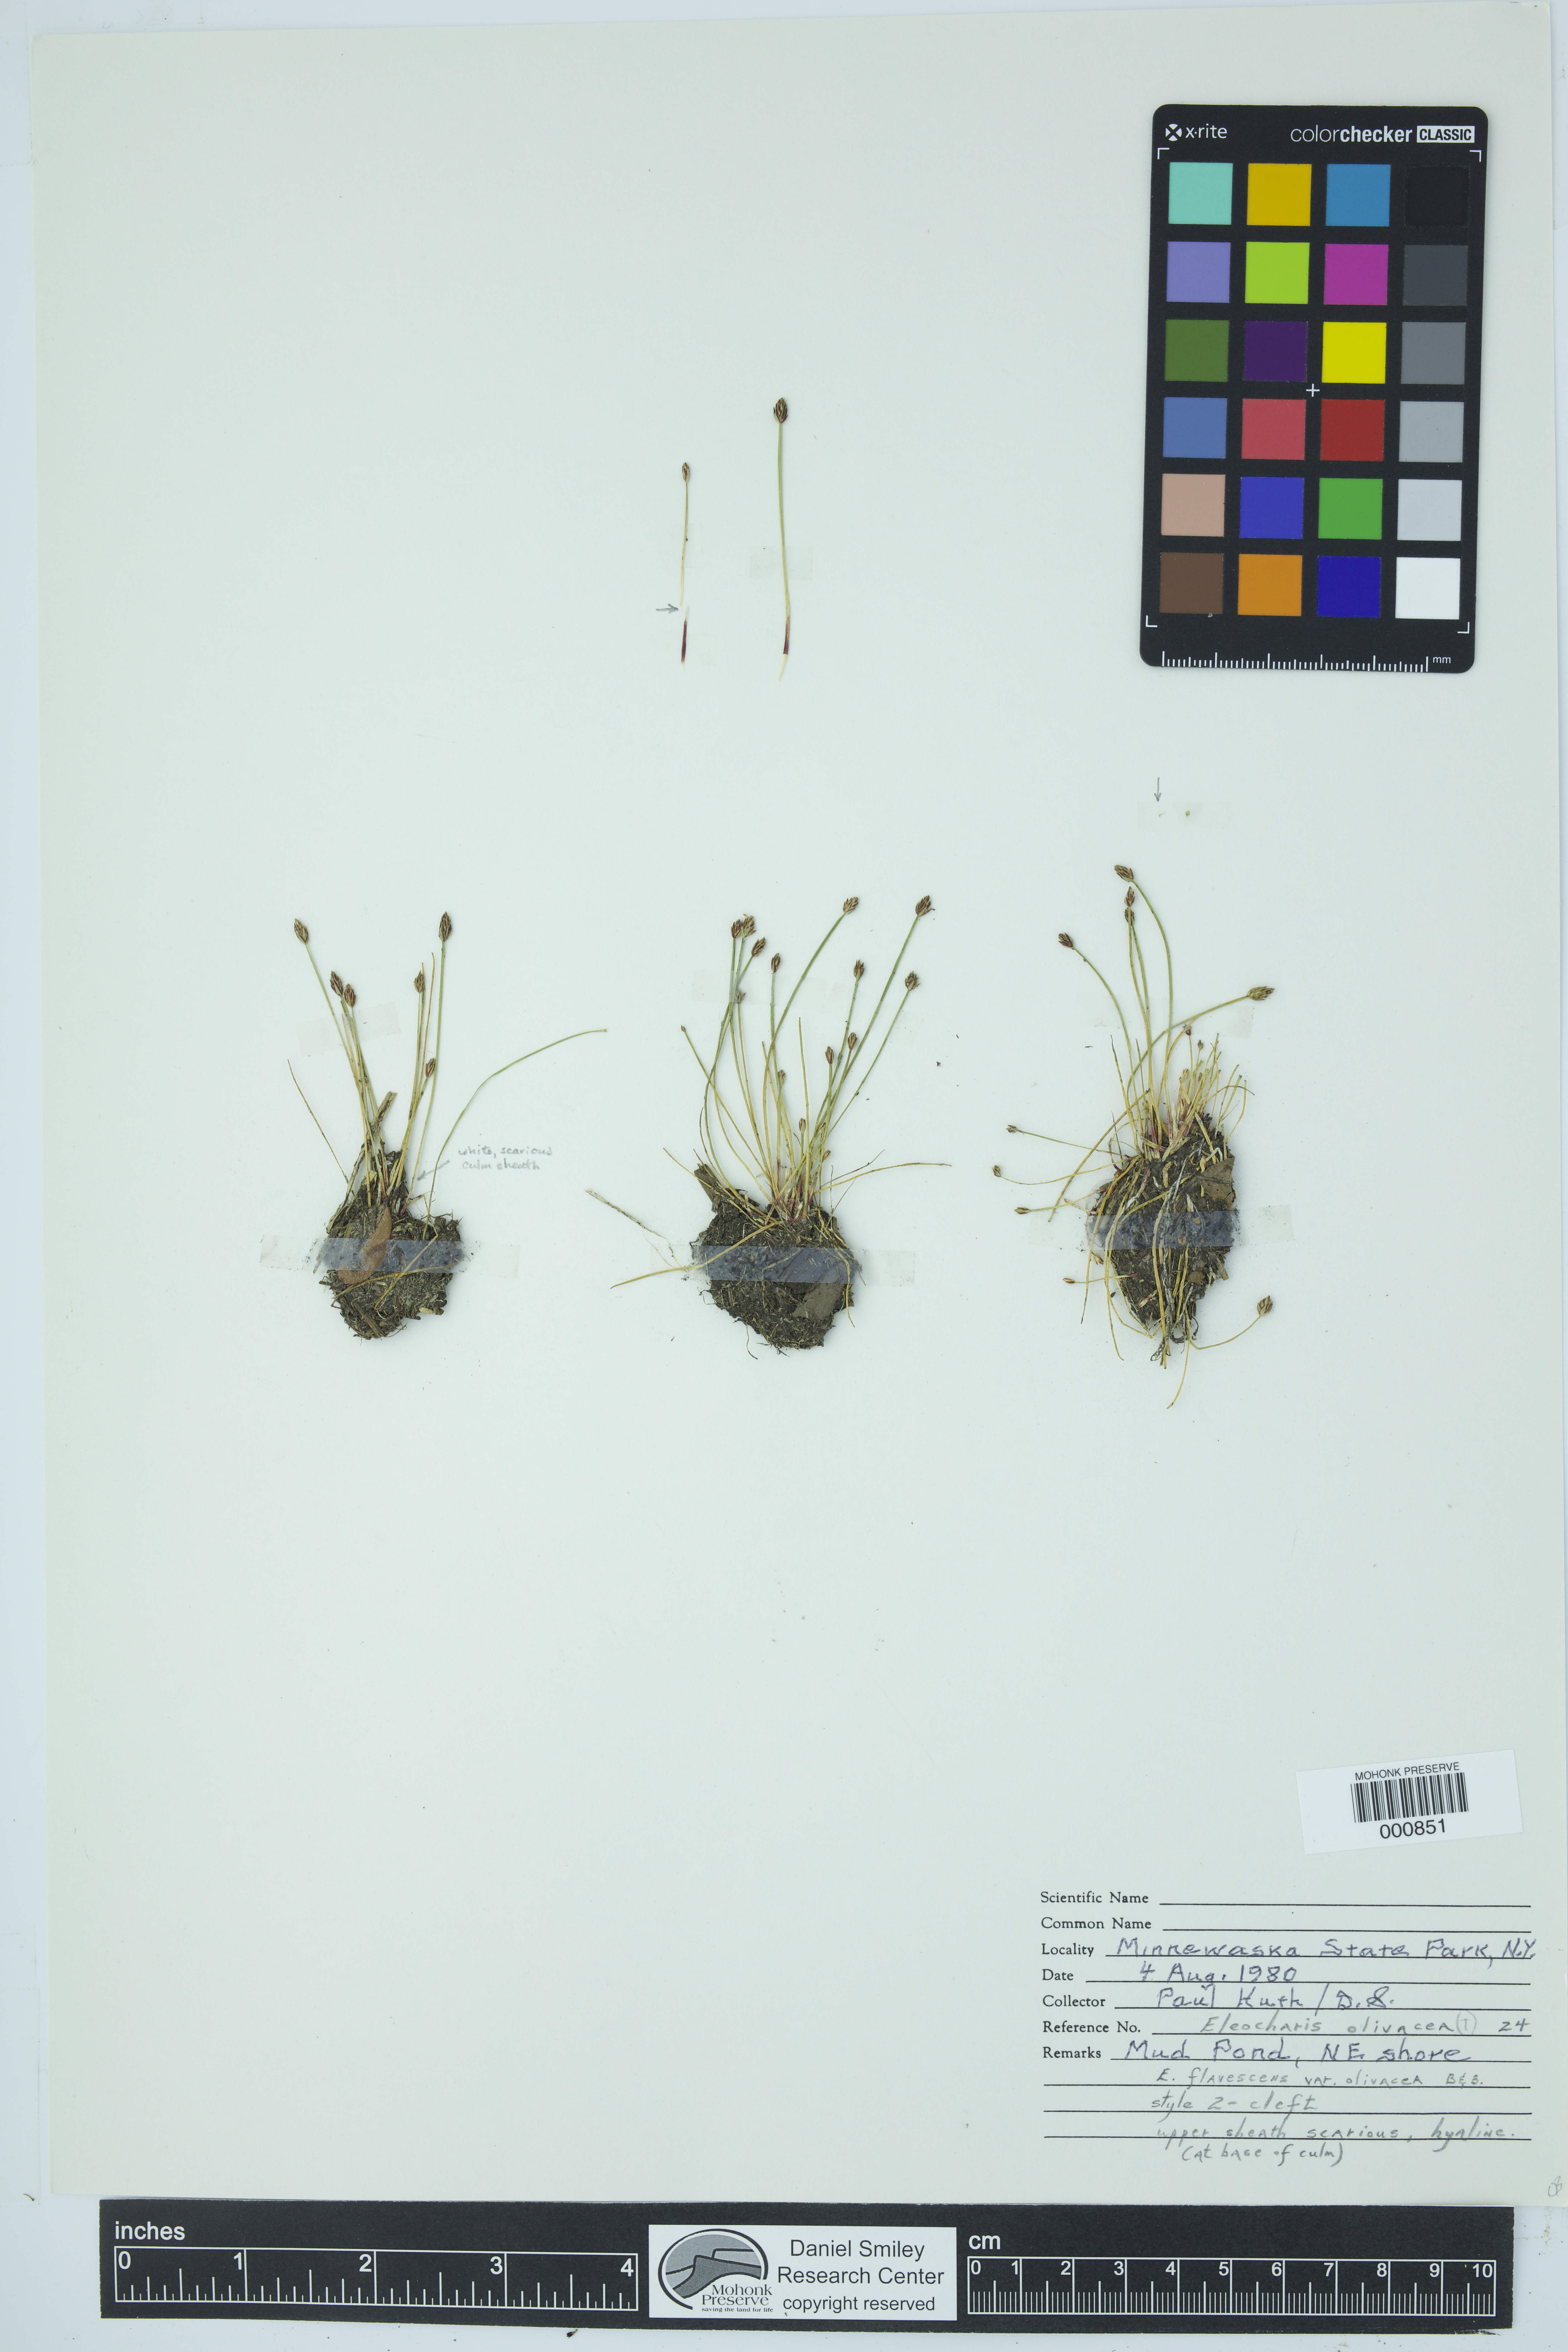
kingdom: Plantae
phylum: Tracheophyta
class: Liliopsida
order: Poales
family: Cyperaceae
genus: Eleocharis
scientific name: Eleocharis flavescens
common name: Yellow spikerush
